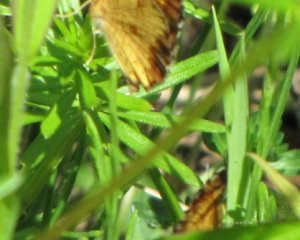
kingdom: Animalia
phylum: Arthropoda
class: Insecta
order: Lepidoptera
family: Nymphalidae
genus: Phyciodes
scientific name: Phyciodes tharos
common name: Northern Crescent
